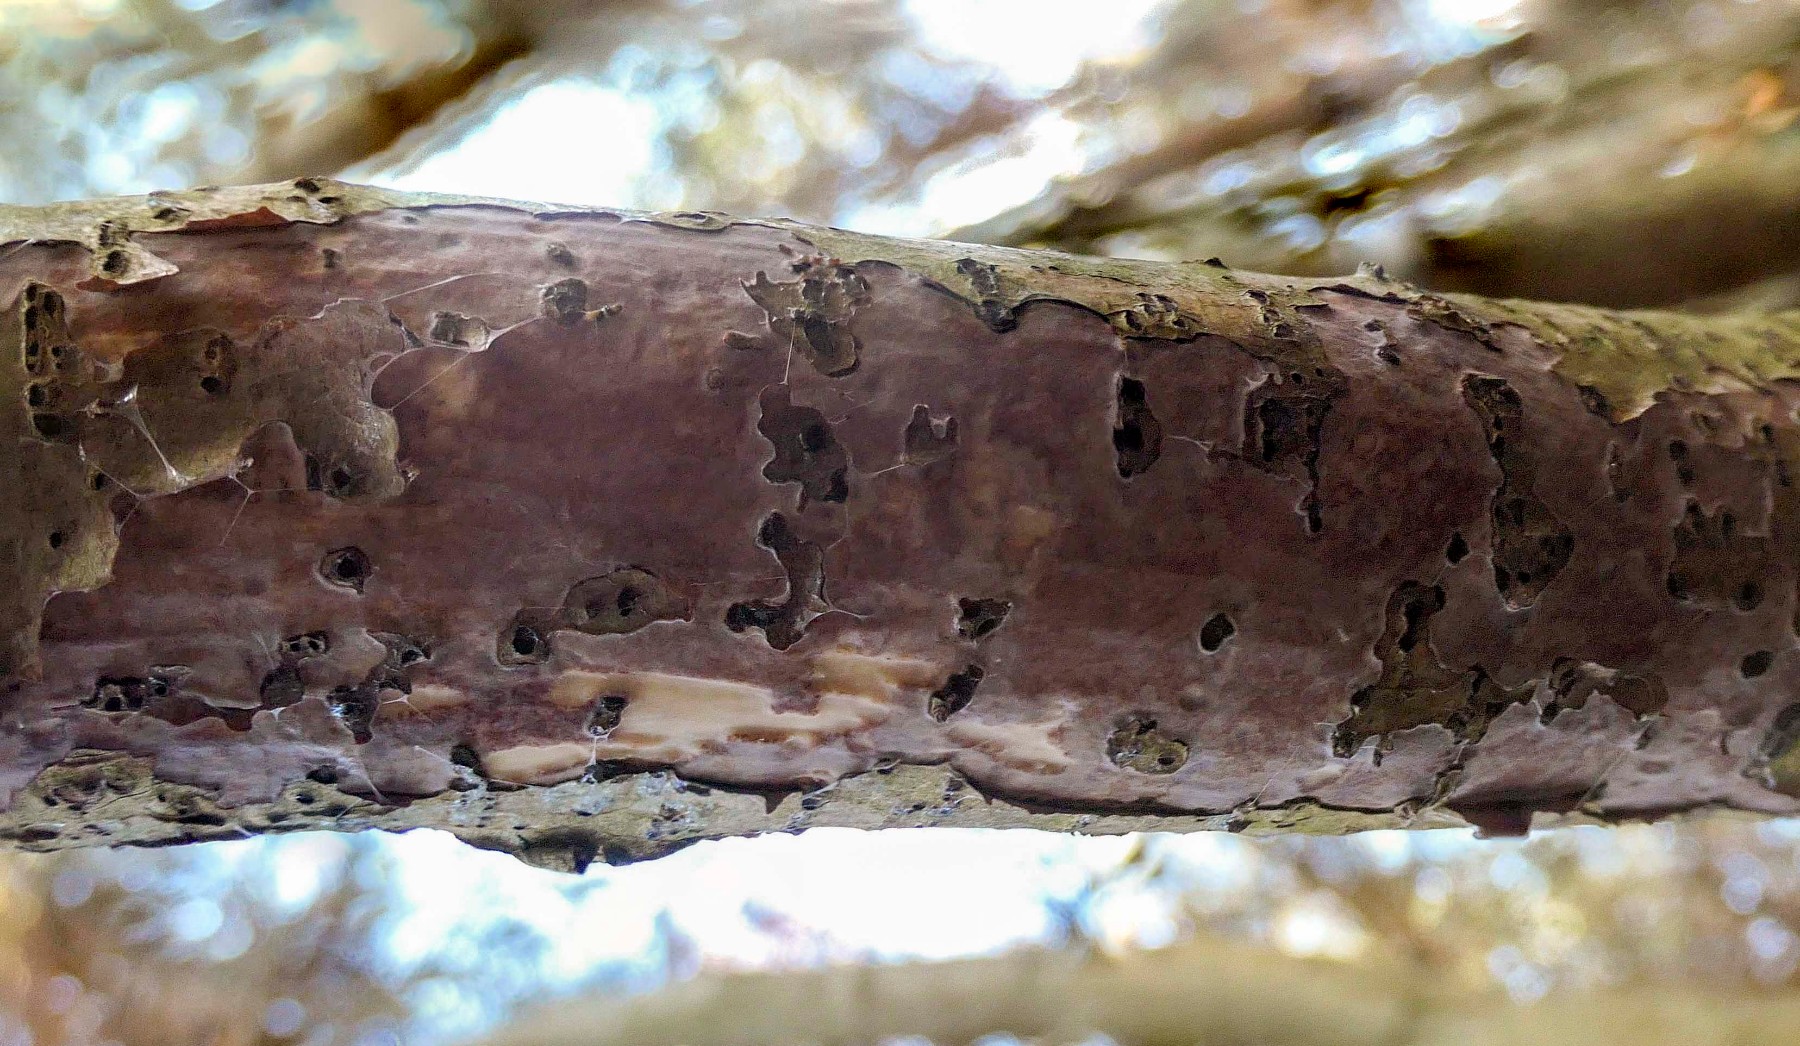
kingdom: Fungi
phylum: Basidiomycota
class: Agaricomycetes
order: Corticiales
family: Vuilleminiaceae
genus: Vuilleminia
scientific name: Vuilleminia coryli
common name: hassel-barksprænger
